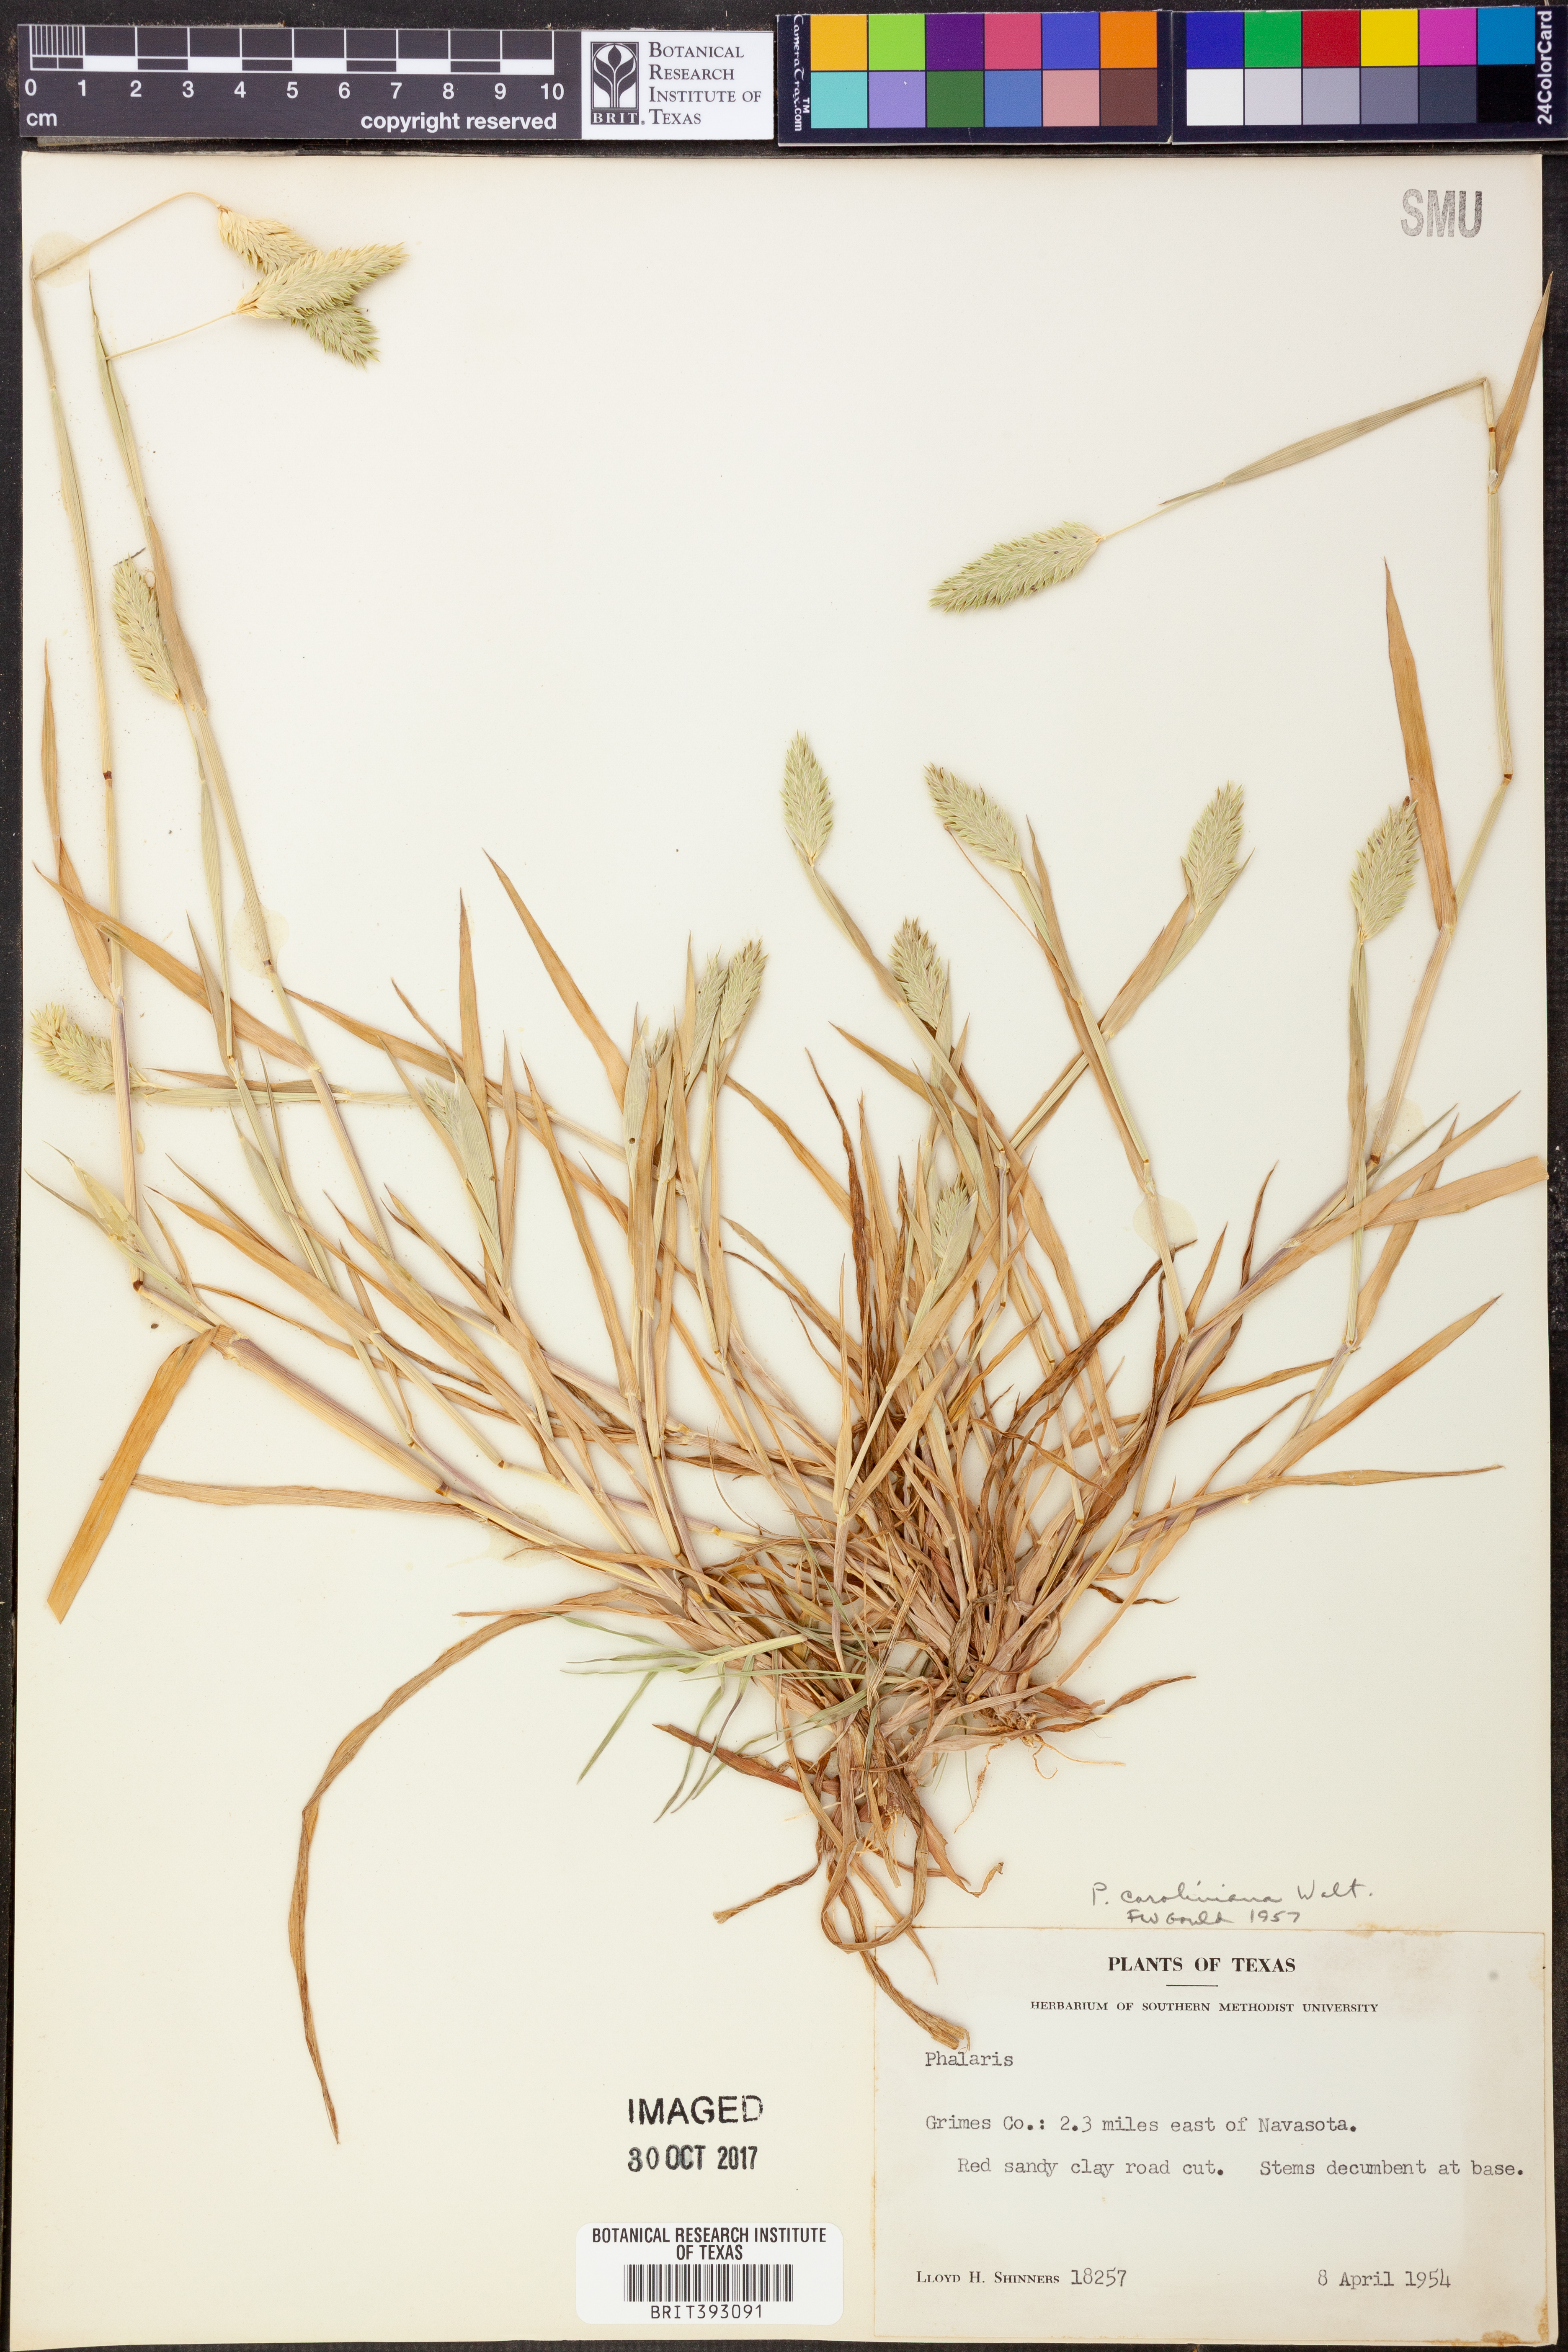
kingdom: Plantae
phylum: Tracheophyta
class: Liliopsida
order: Poales
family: Poaceae
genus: Phalaris
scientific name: Phalaris caroliniana
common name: May grass
